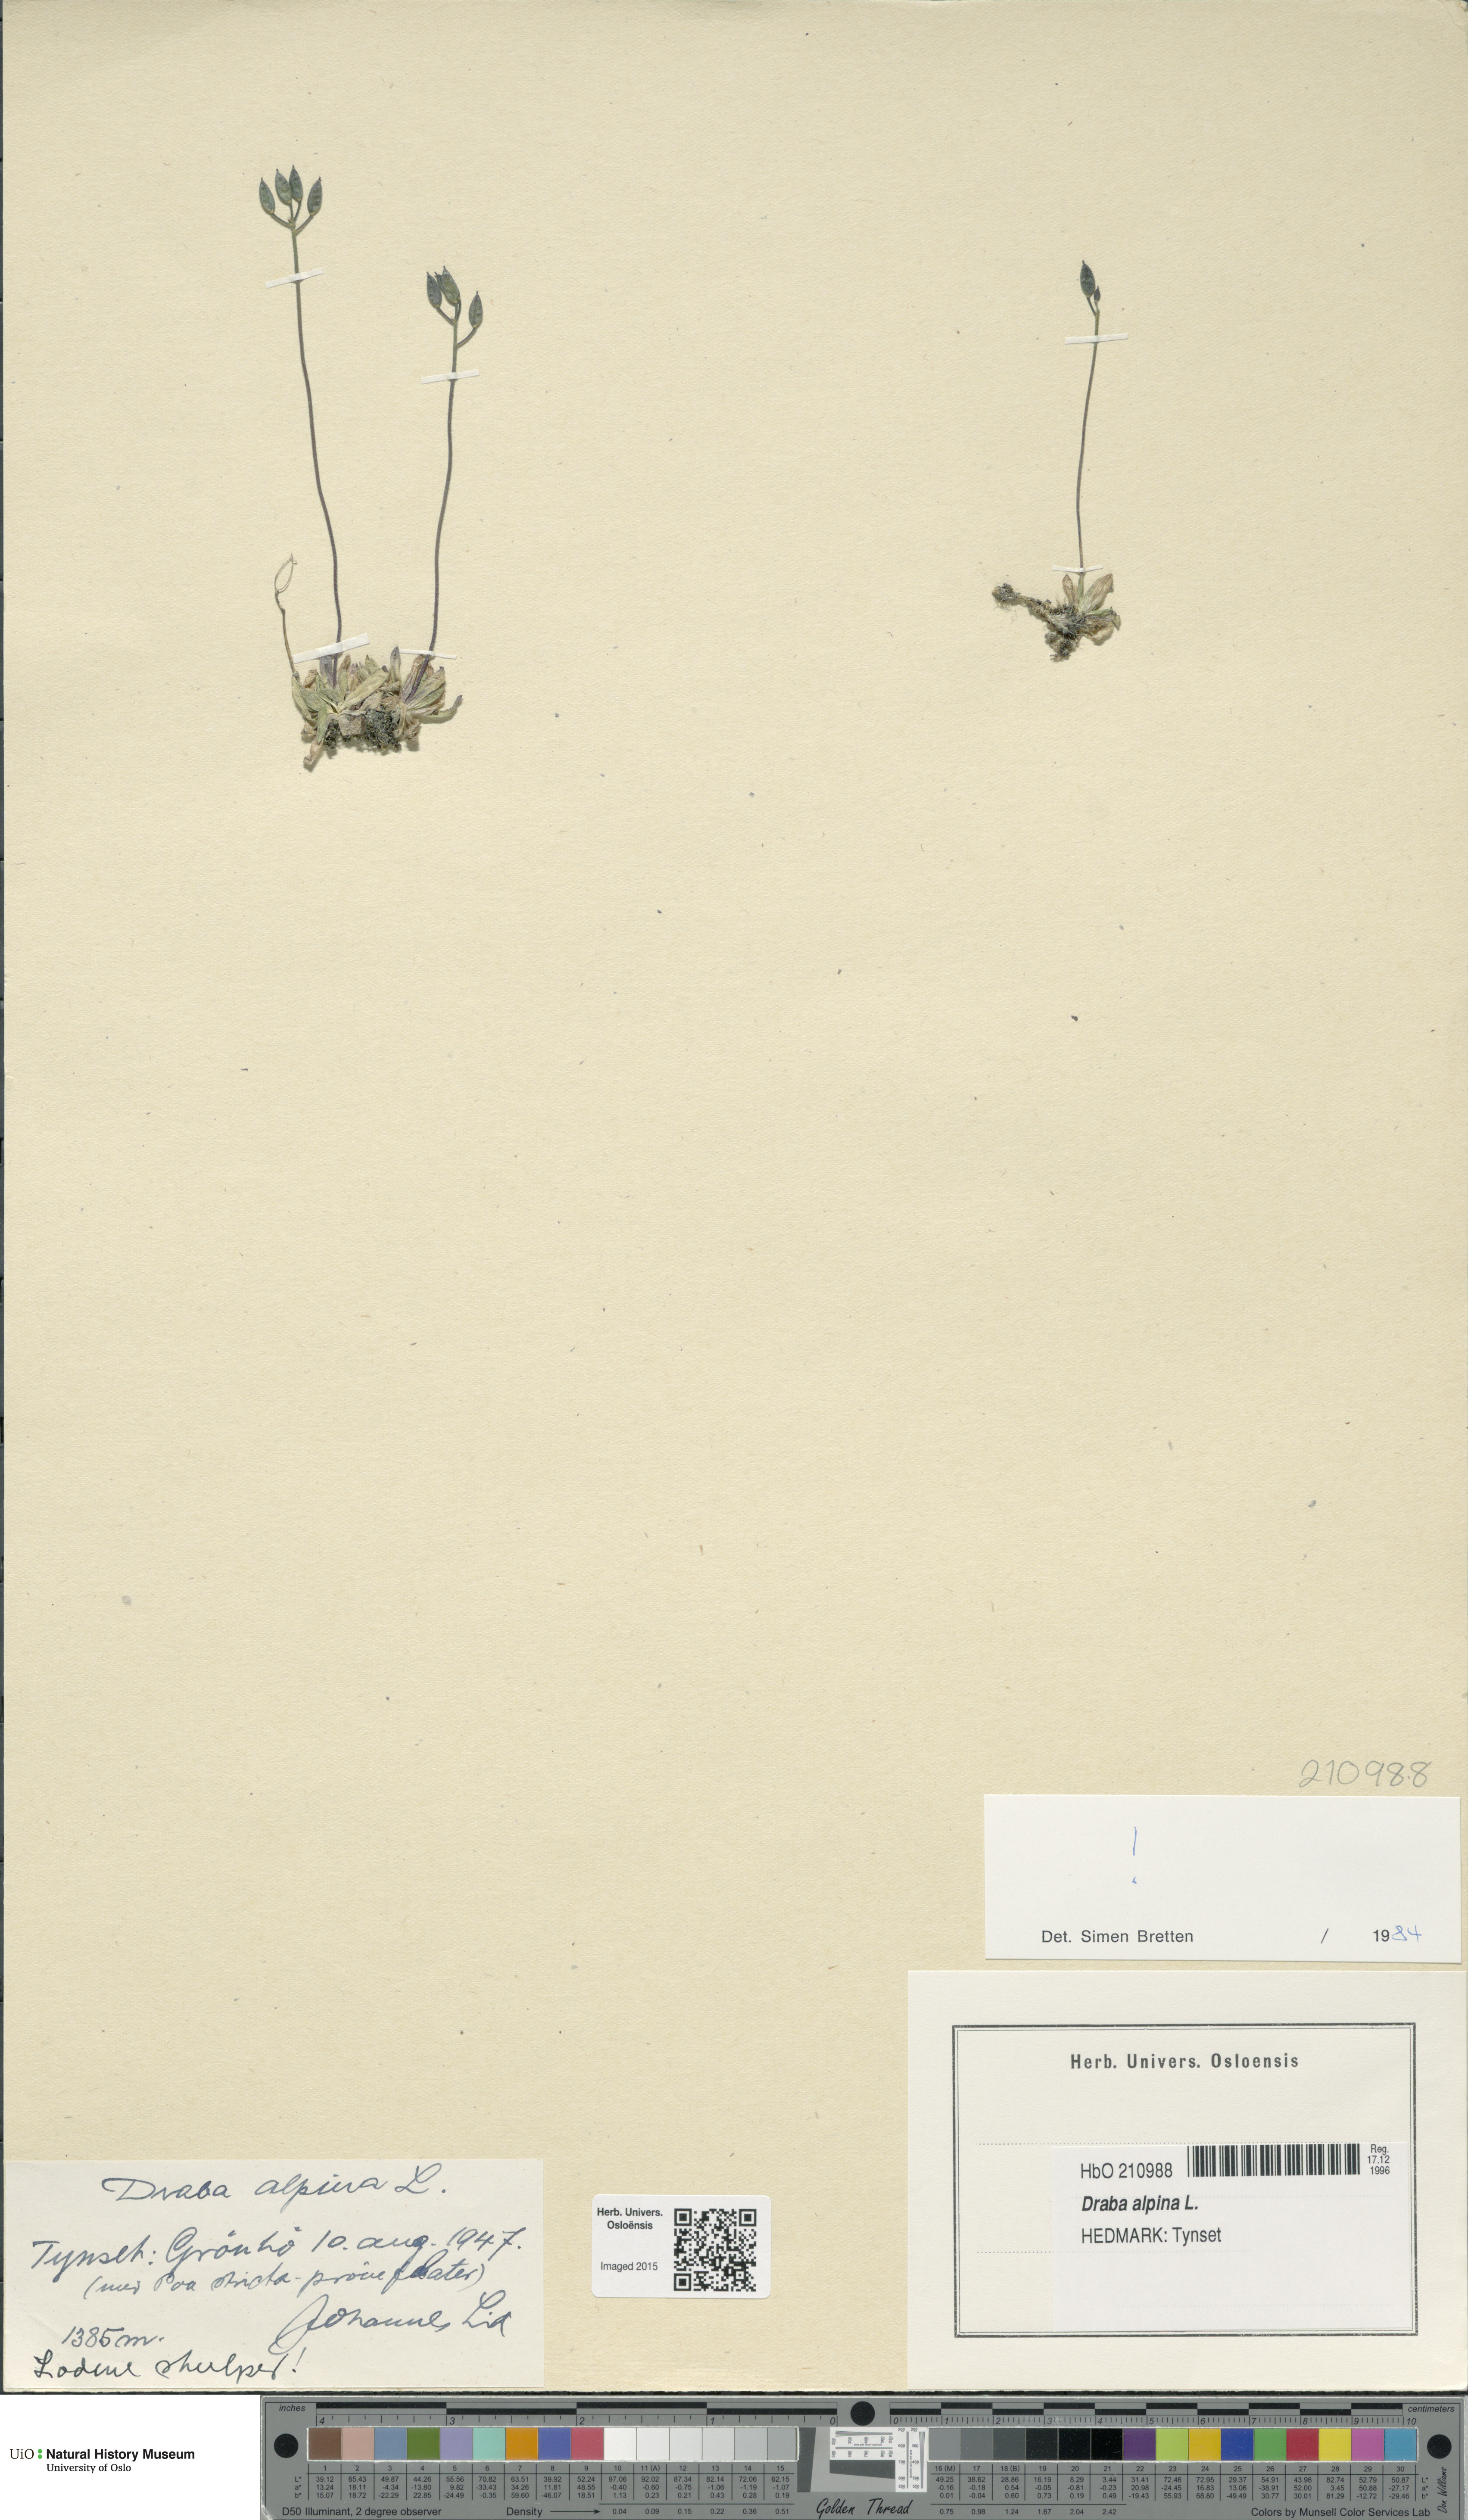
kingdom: Plantae
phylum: Tracheophyta
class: Magnoliopsida
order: Brassicales
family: Brassicaceae
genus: Draba
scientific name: Draba alpina
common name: Alpine draba
